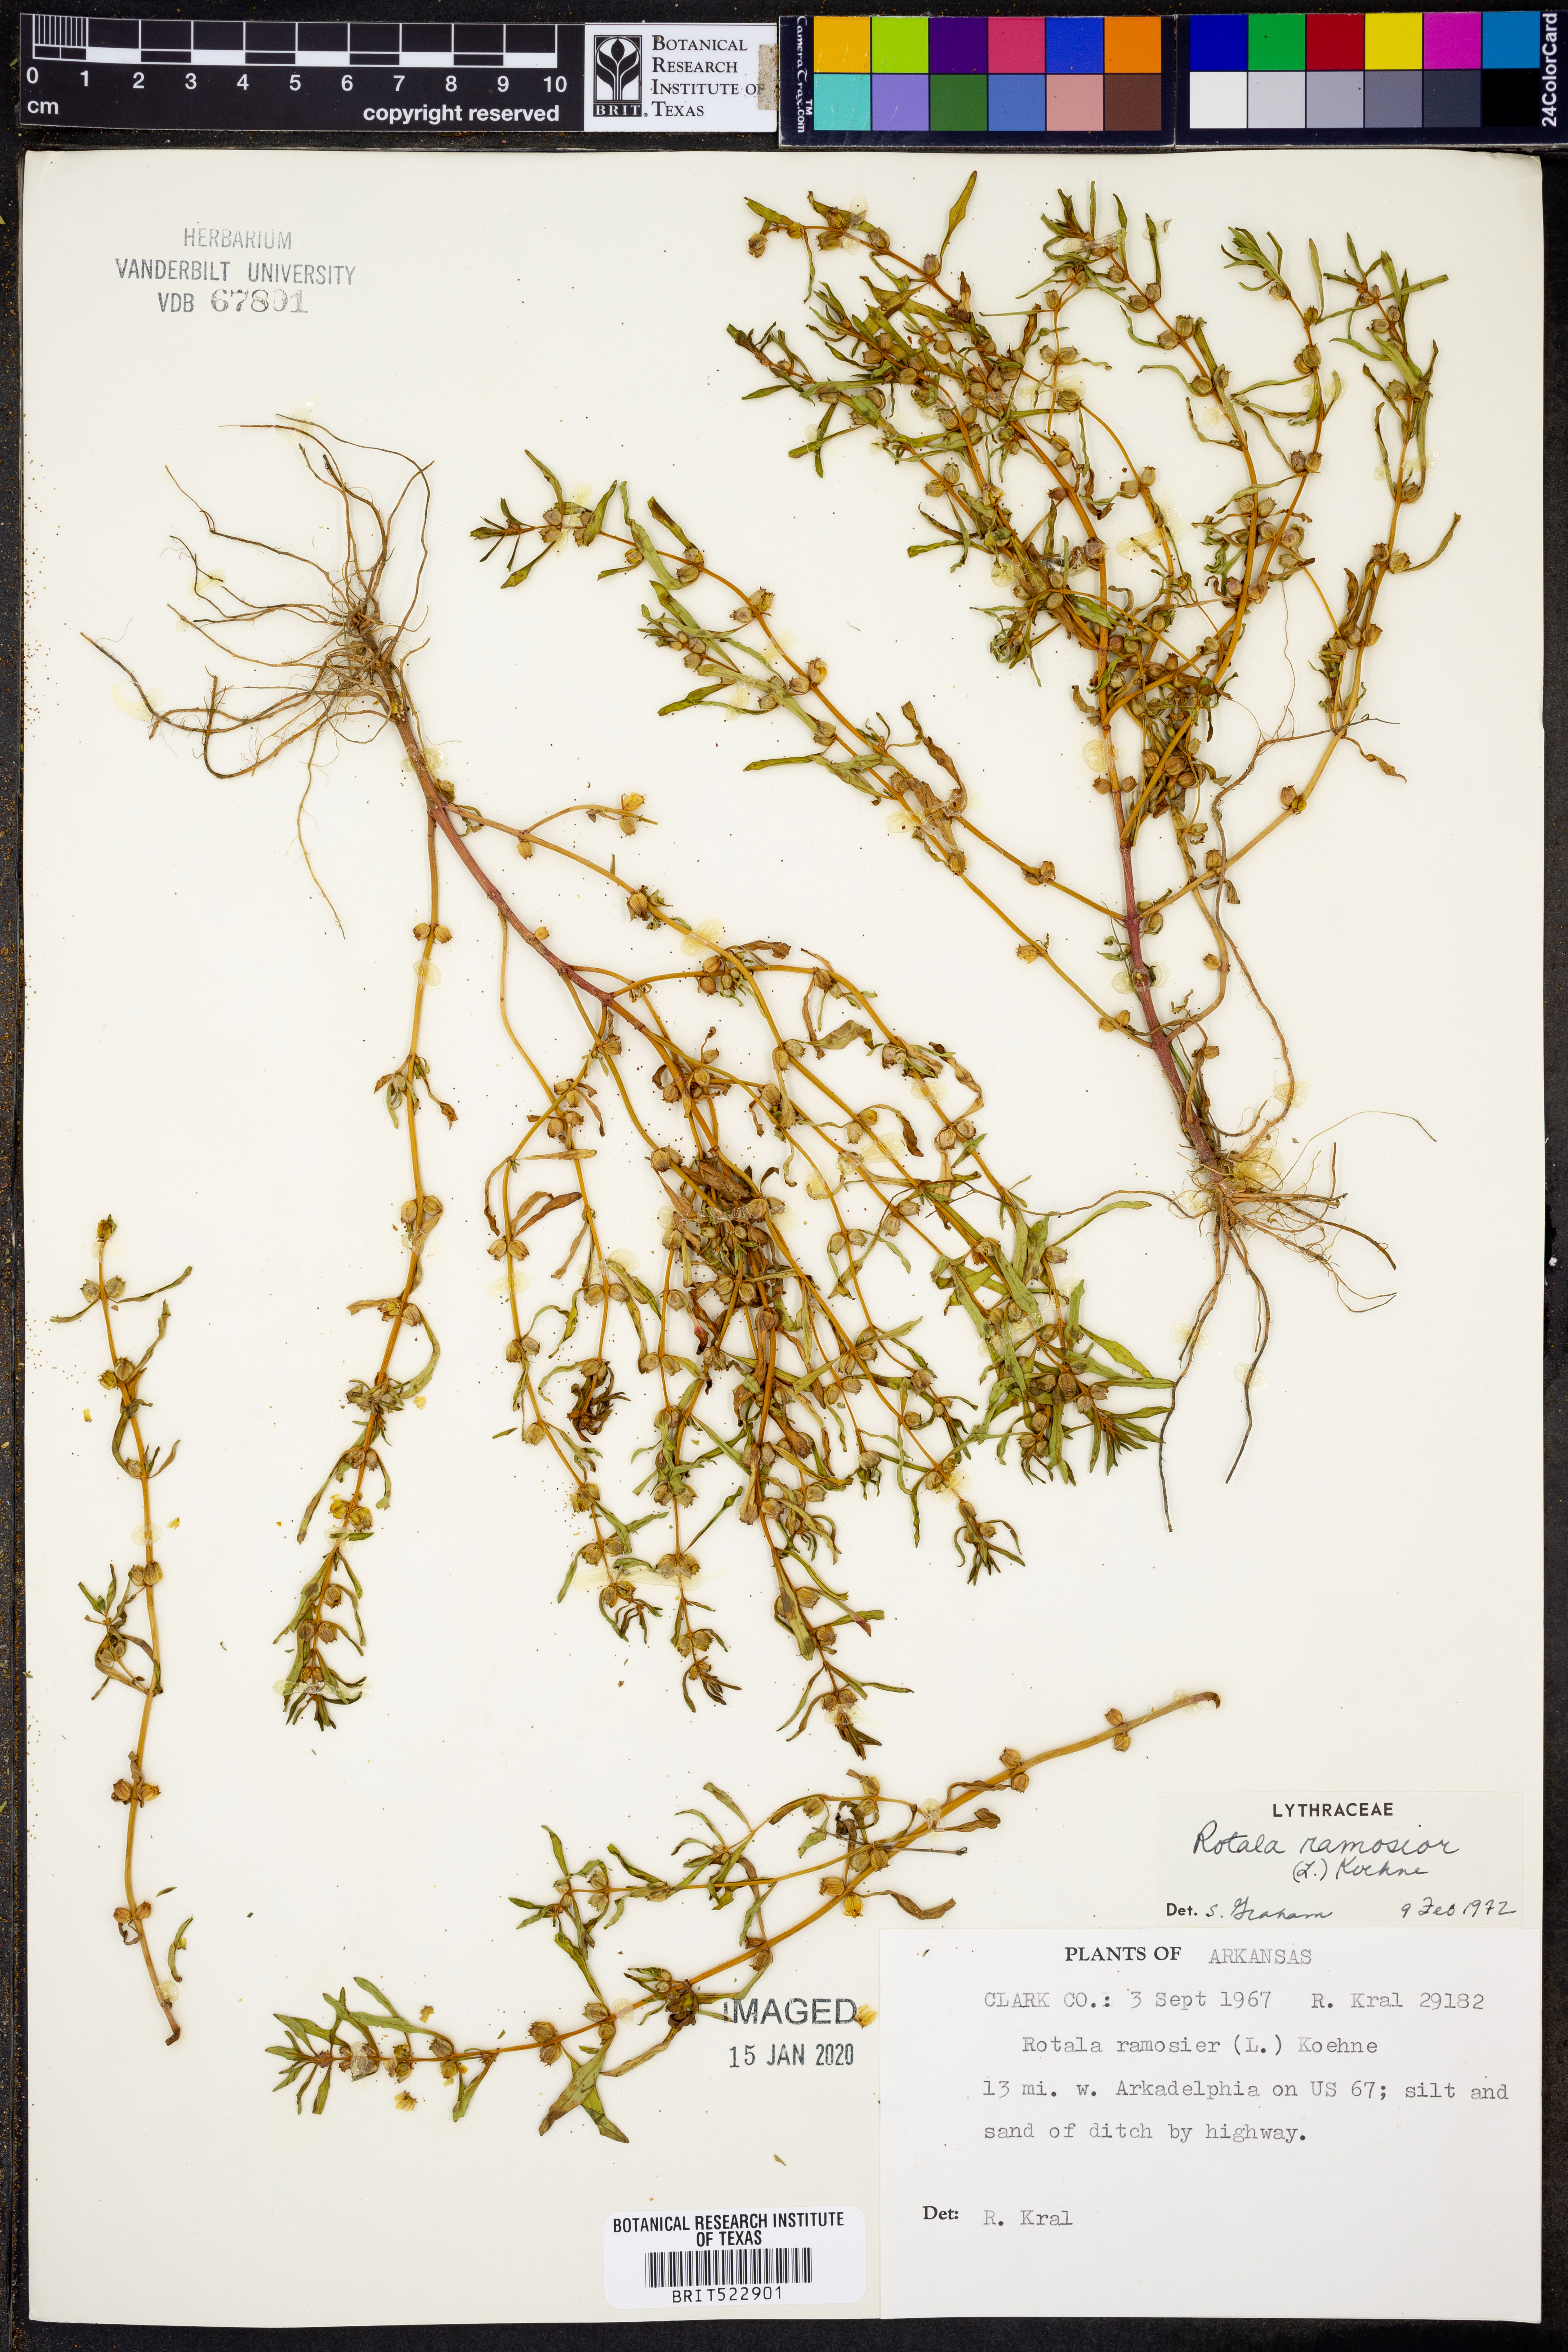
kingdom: Plantae
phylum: Tracheophyta
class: Magnoliopsida
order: Myrtales
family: Lythraceae
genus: Rotala
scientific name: Rotala ramosior
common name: Lowland rotala
